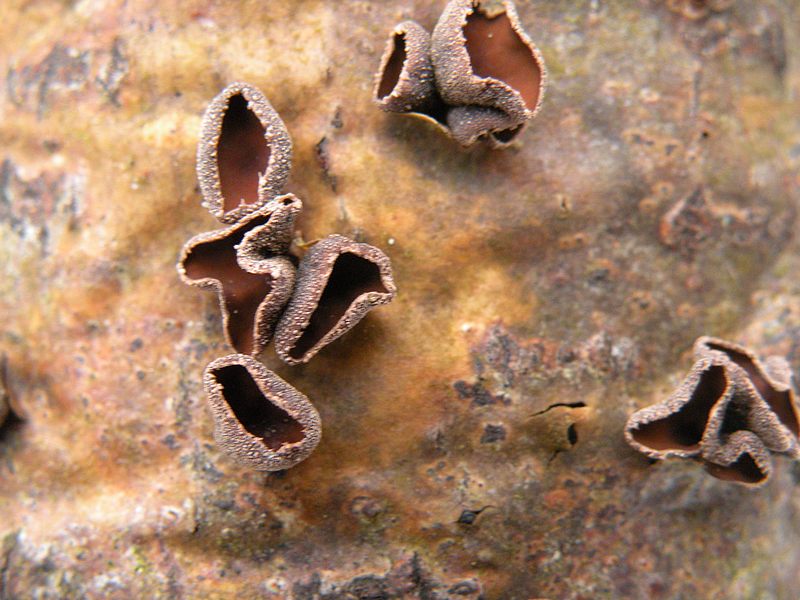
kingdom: Fungi
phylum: Ascomycota
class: Leotiomycetes
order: Helotiales
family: Sclerotiniaceae
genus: Sclerencoelia
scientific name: Sclerencoelia fascicularis
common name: poppel-læderskive
